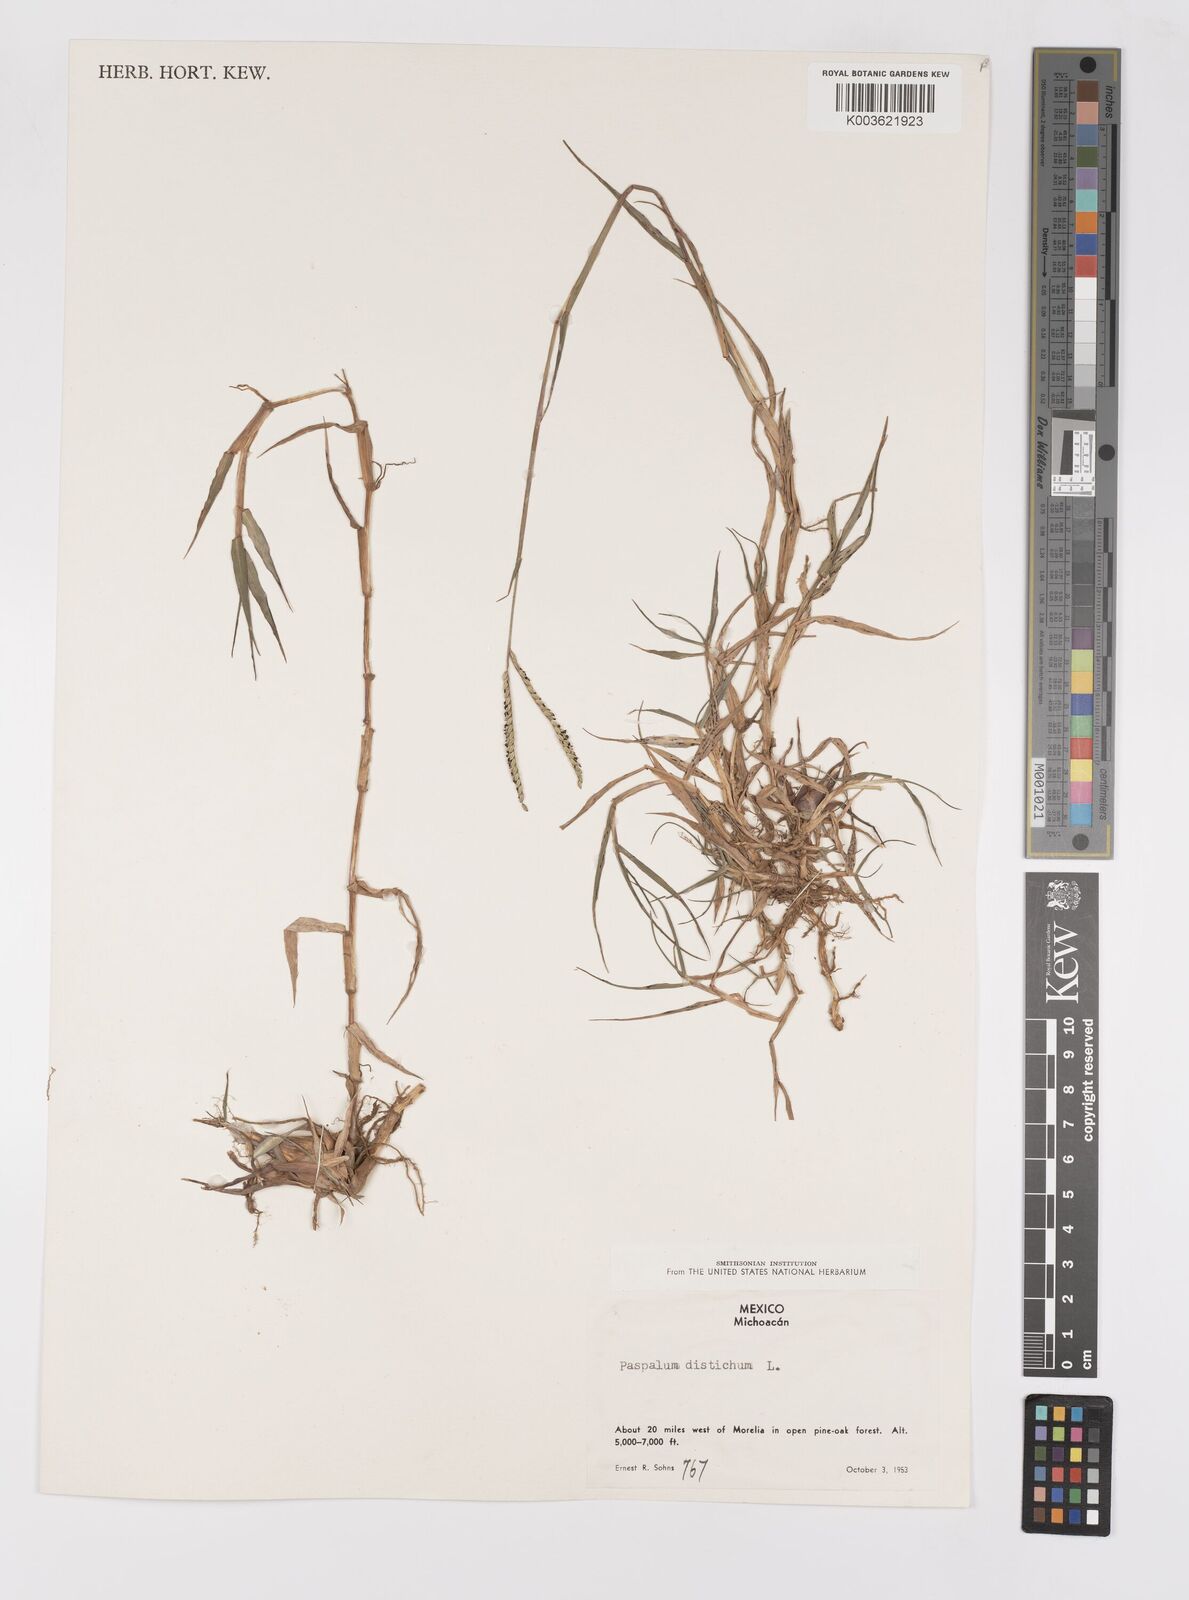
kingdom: Plantae
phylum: Tracheophyta
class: Liliopsida
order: Poales
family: Poaceae
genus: Paspalum
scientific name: Paspalum distichum
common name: Knotgrass
